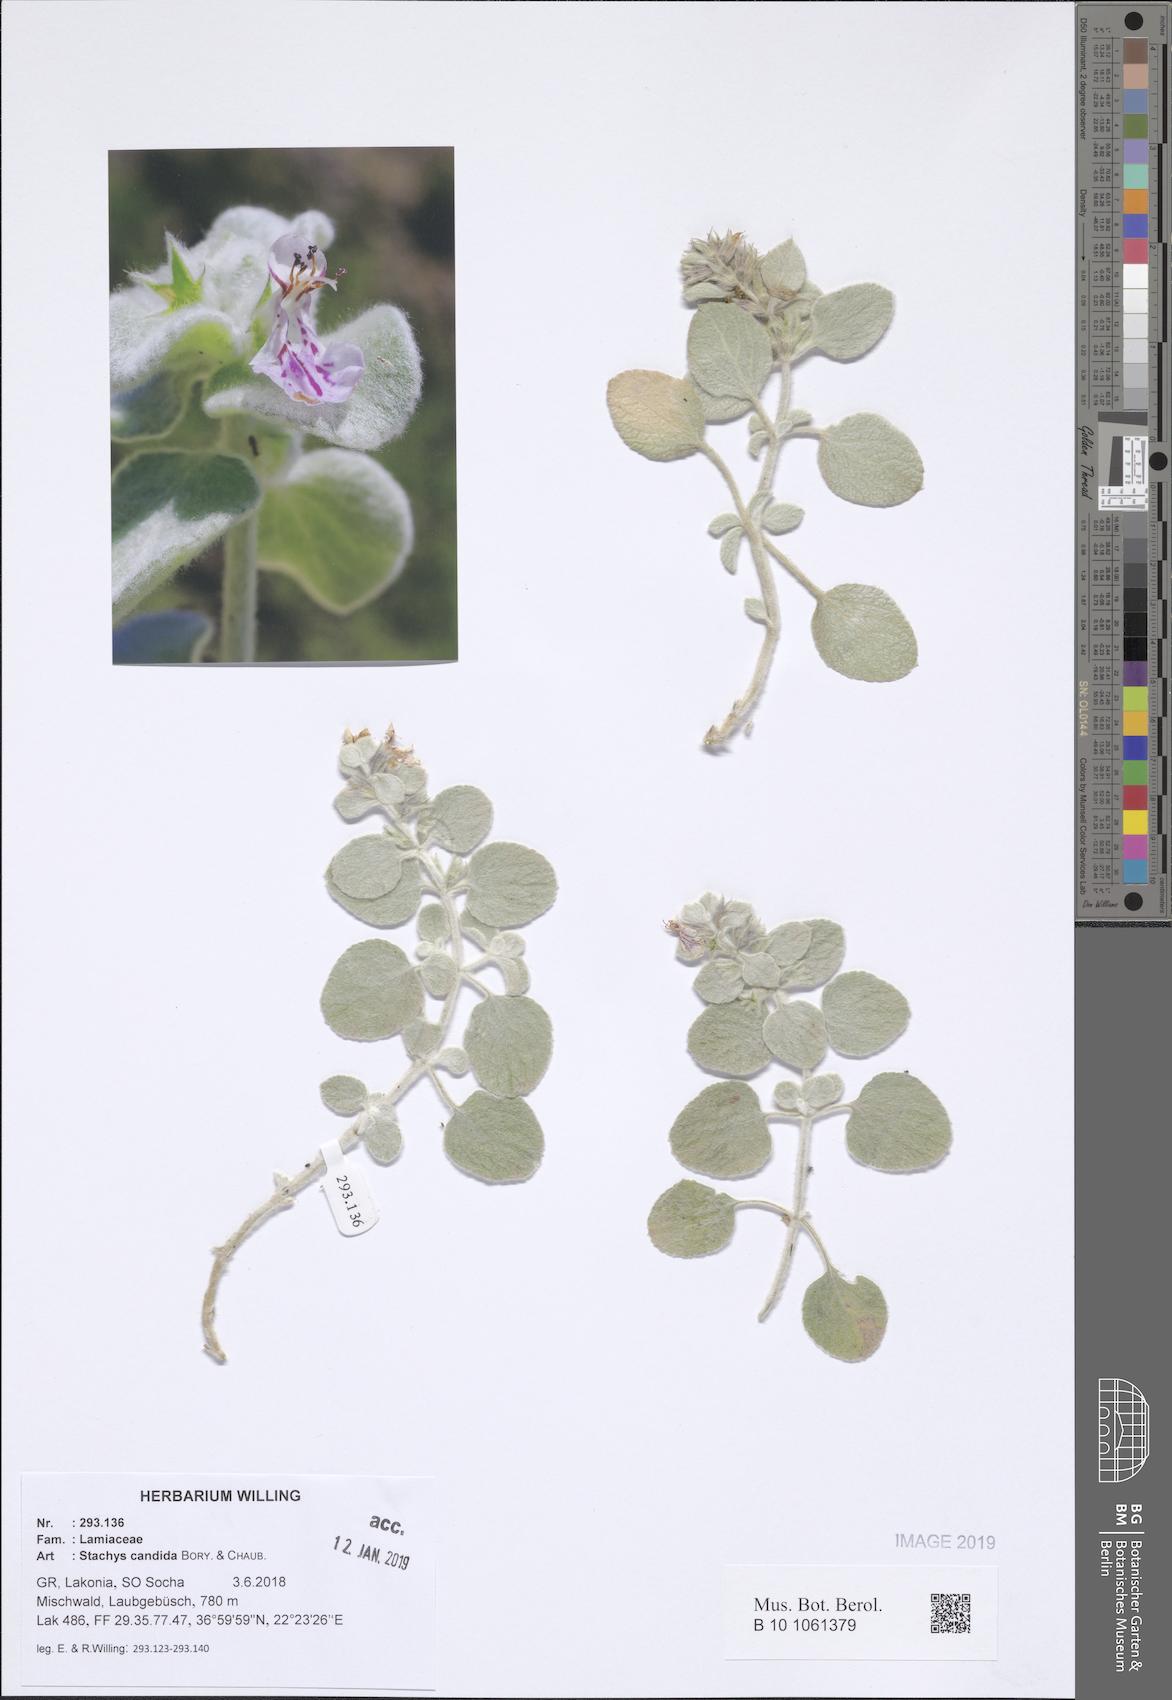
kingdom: Plantae
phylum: Tracheophyta
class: Magnoliopsida
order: Lamiales
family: Lamiaceae
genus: Stachys
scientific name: Stachys candida
